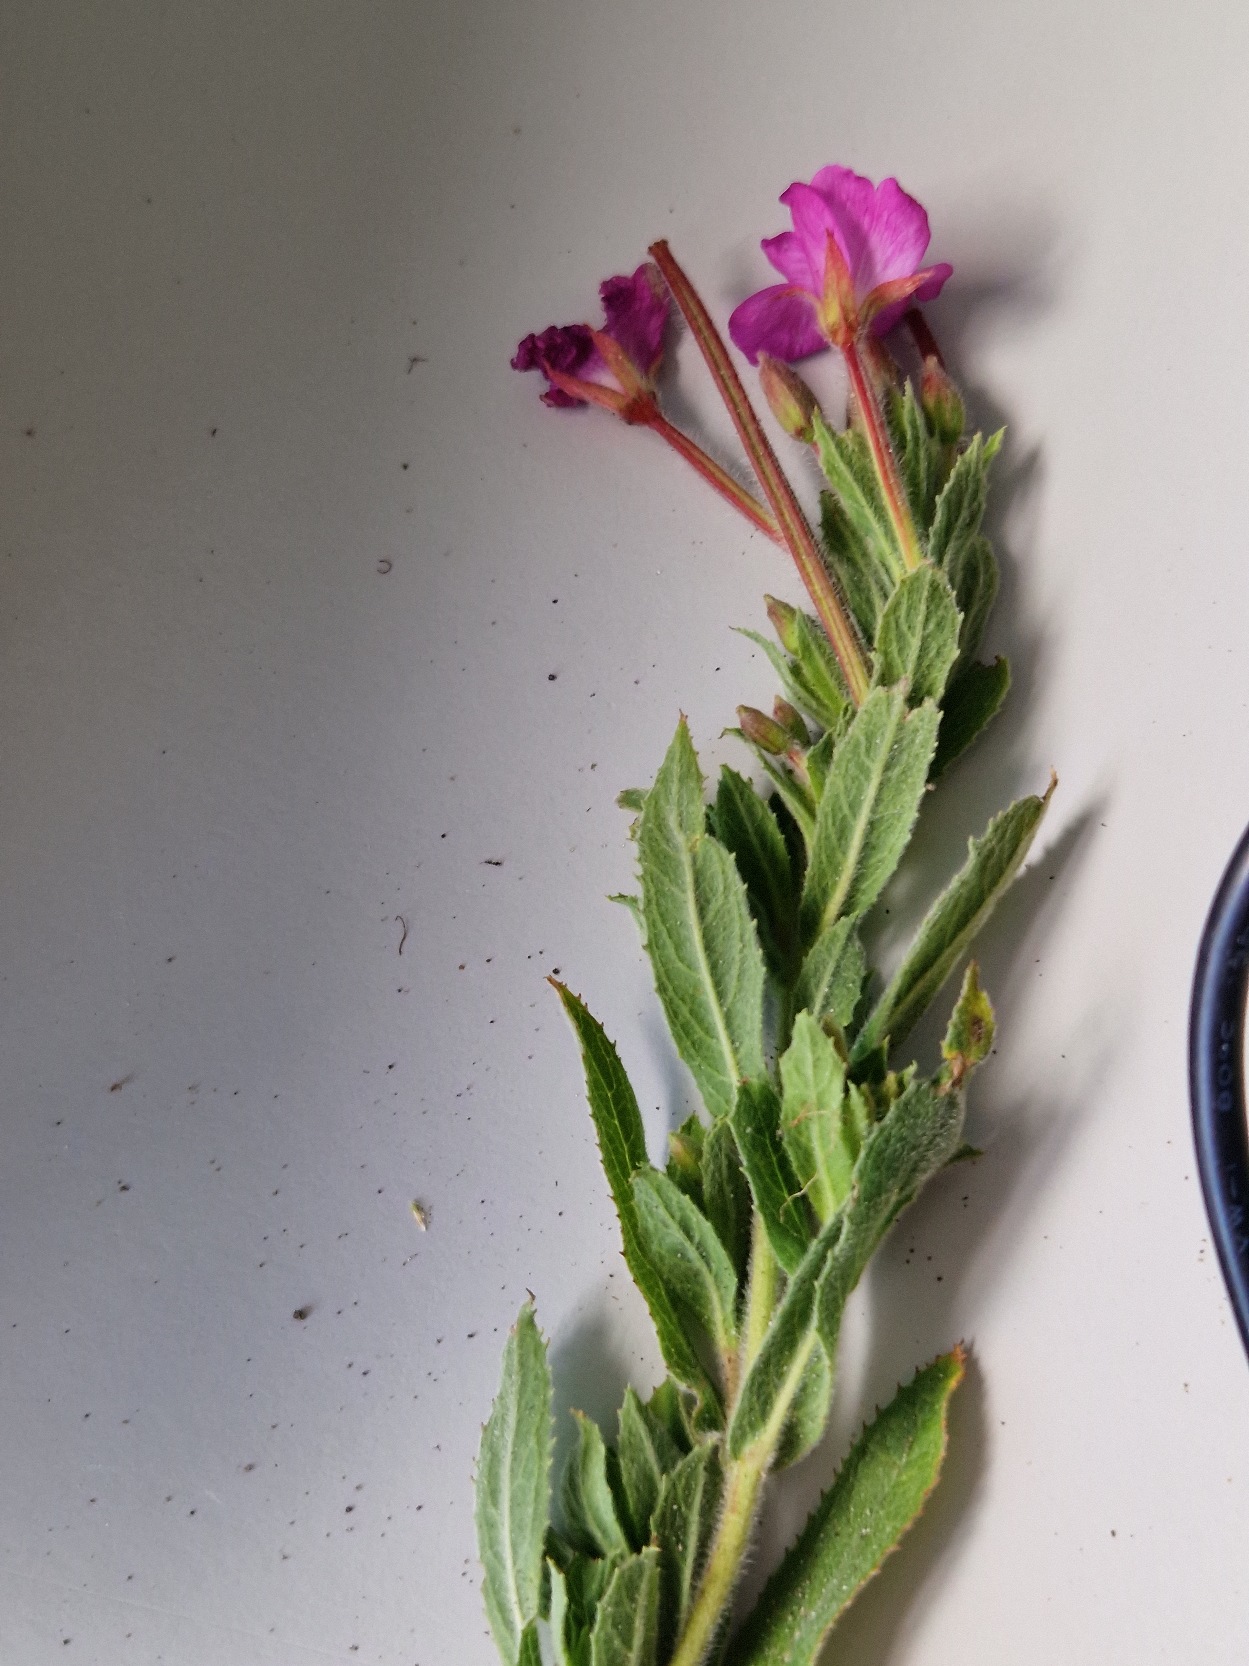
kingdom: Plantae
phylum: Tracheophyta
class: Magnoliopsida
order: Myrtales
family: Onagraceae
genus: Epilobium
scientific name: Epilobium hirsutum
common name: Lådden dueurt
